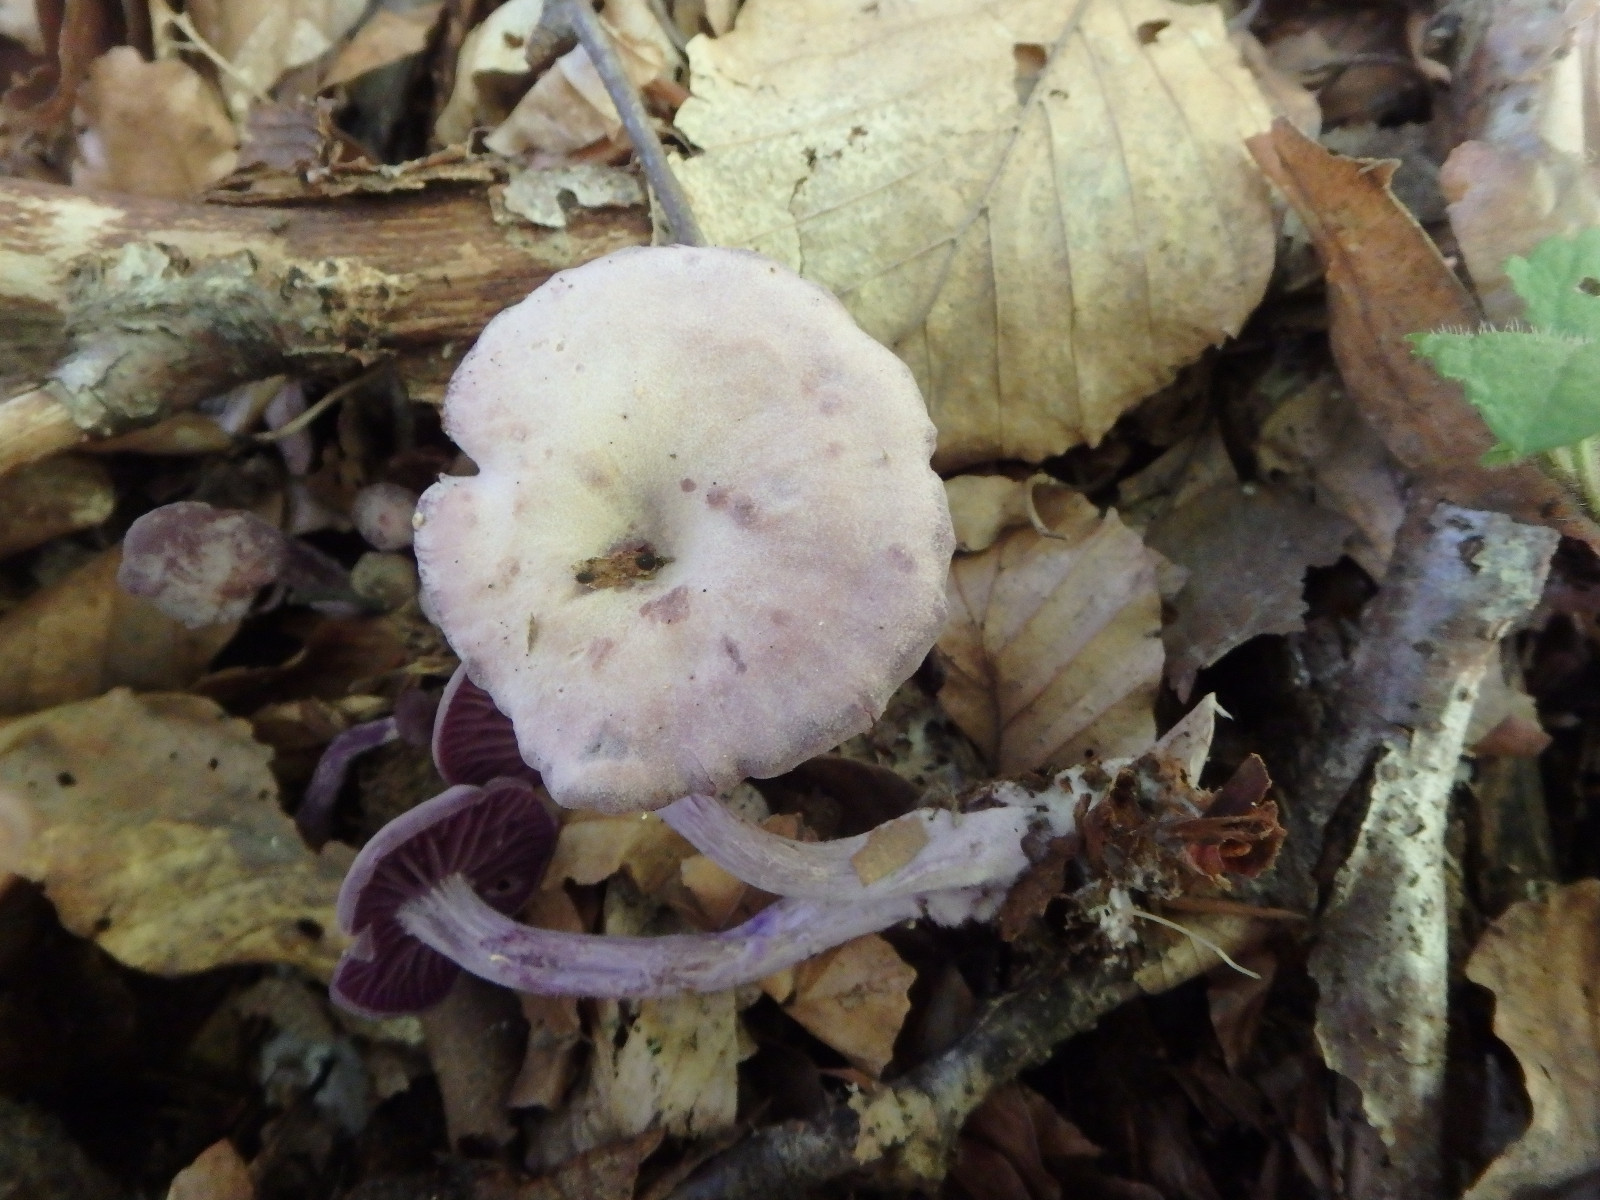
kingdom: Fungi
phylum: Basidiomycota
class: Agaricomycetes
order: Agaricales
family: Hydnangiaceae
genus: Laccaria
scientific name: Laccaria amethystina
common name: violet ametysthat
